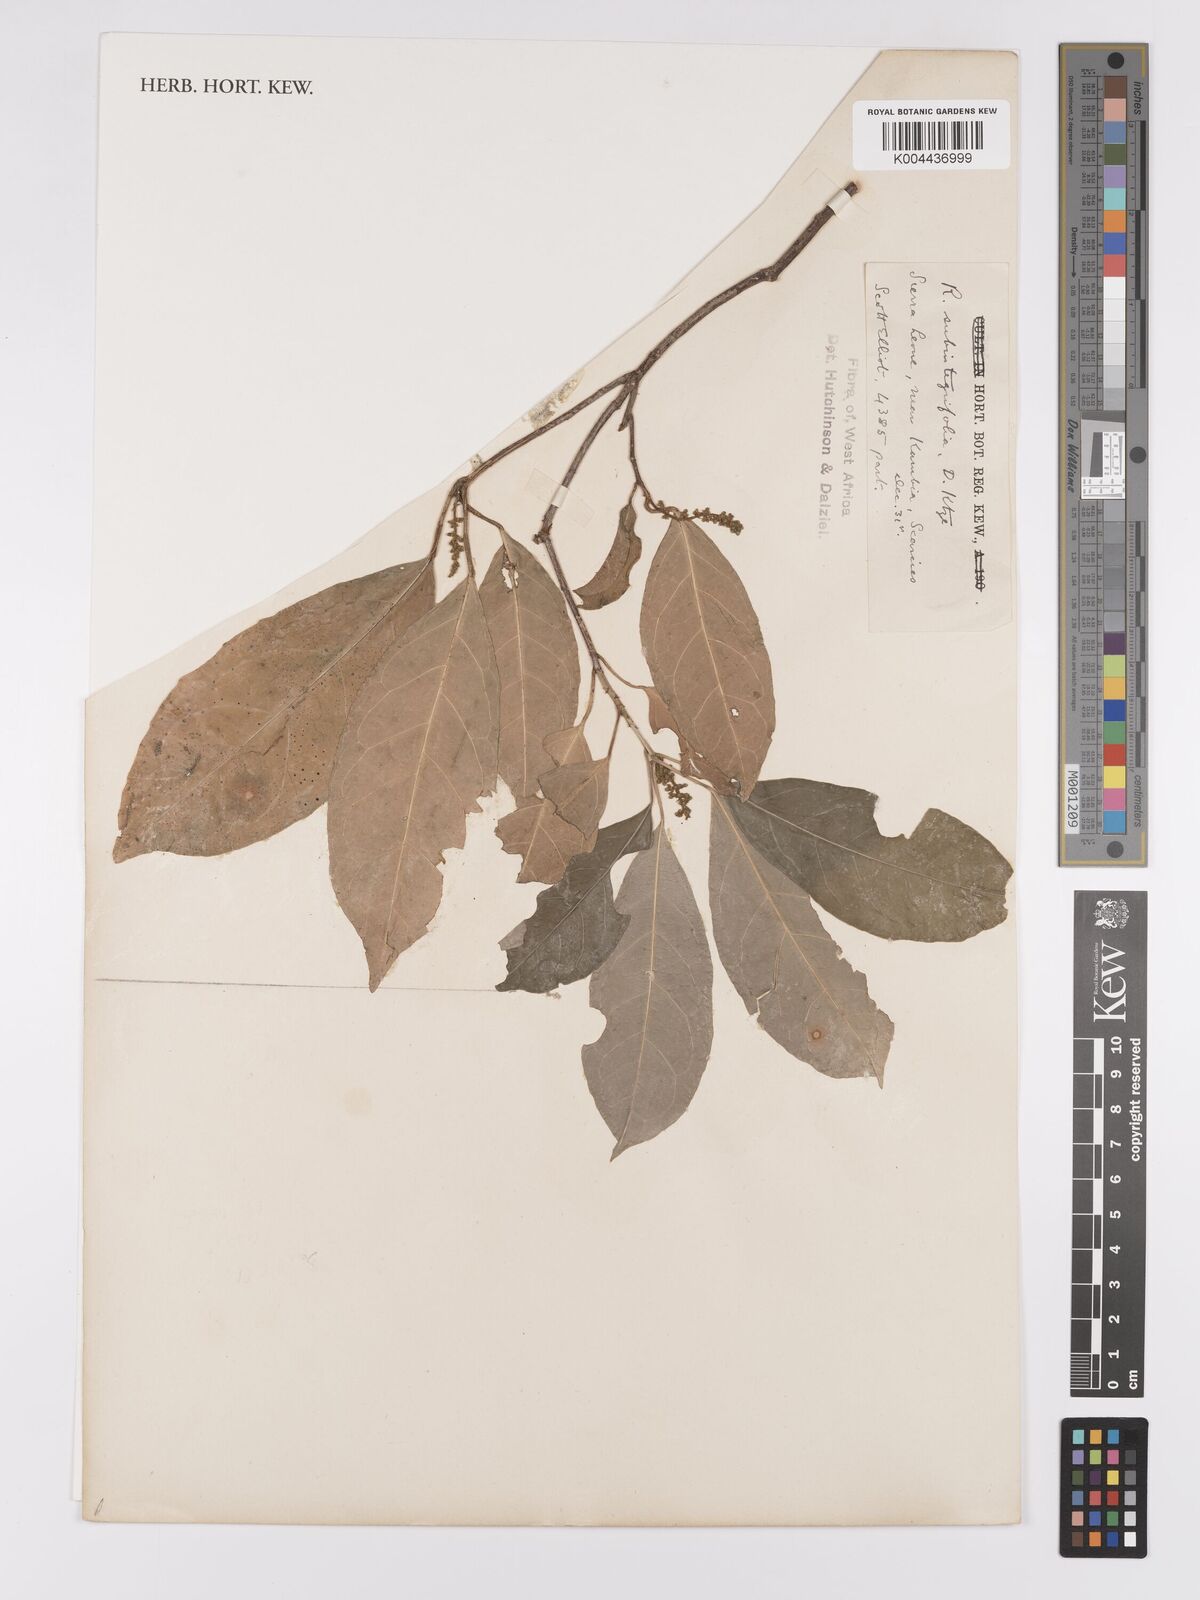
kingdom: Plantae
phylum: Tracheophyta
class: Magnoliopsida
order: Malpighiales
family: Violaceae
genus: Rinorea
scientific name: Rinorea subintegrifolia
